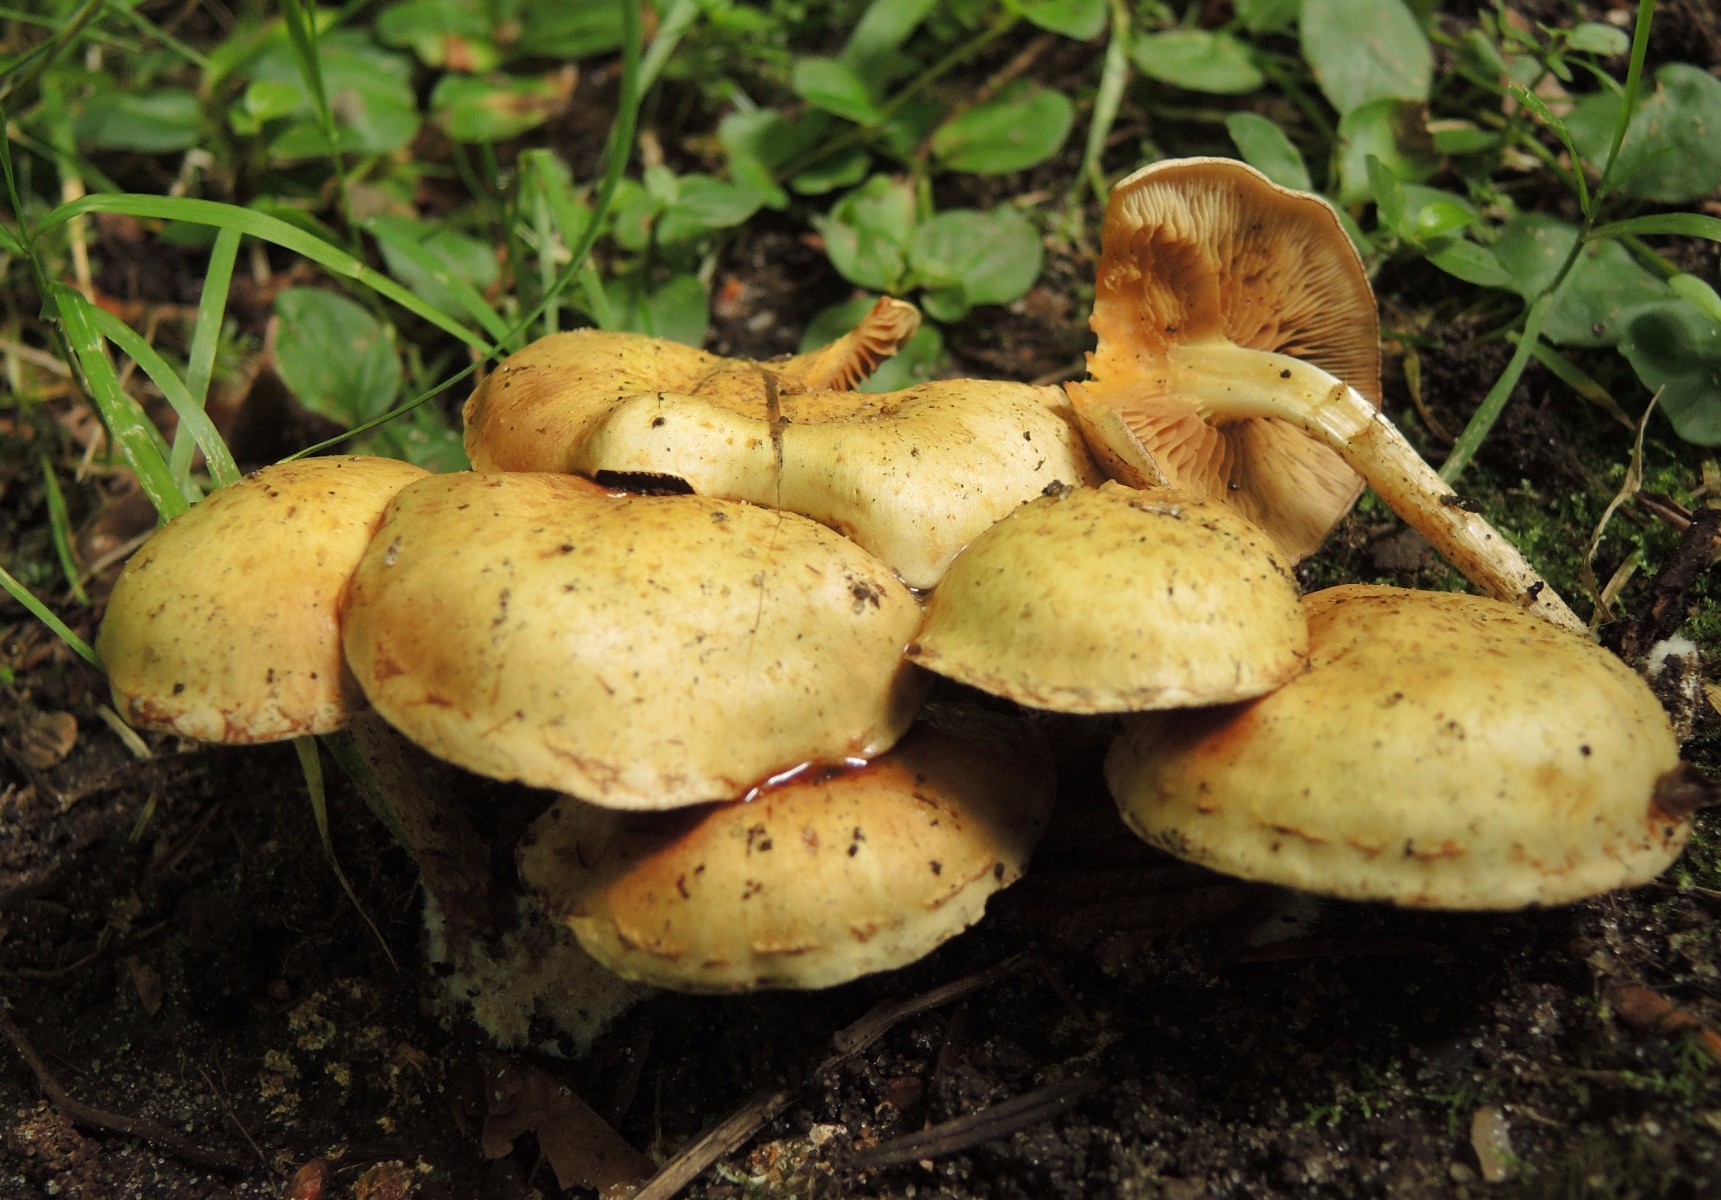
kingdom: Fungi
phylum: Basidiomycota
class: Agaricomycetes
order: Agaricales
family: Strophariaceae
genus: Pholiota
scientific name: Pholiota gummosa
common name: grøngul skælhat
